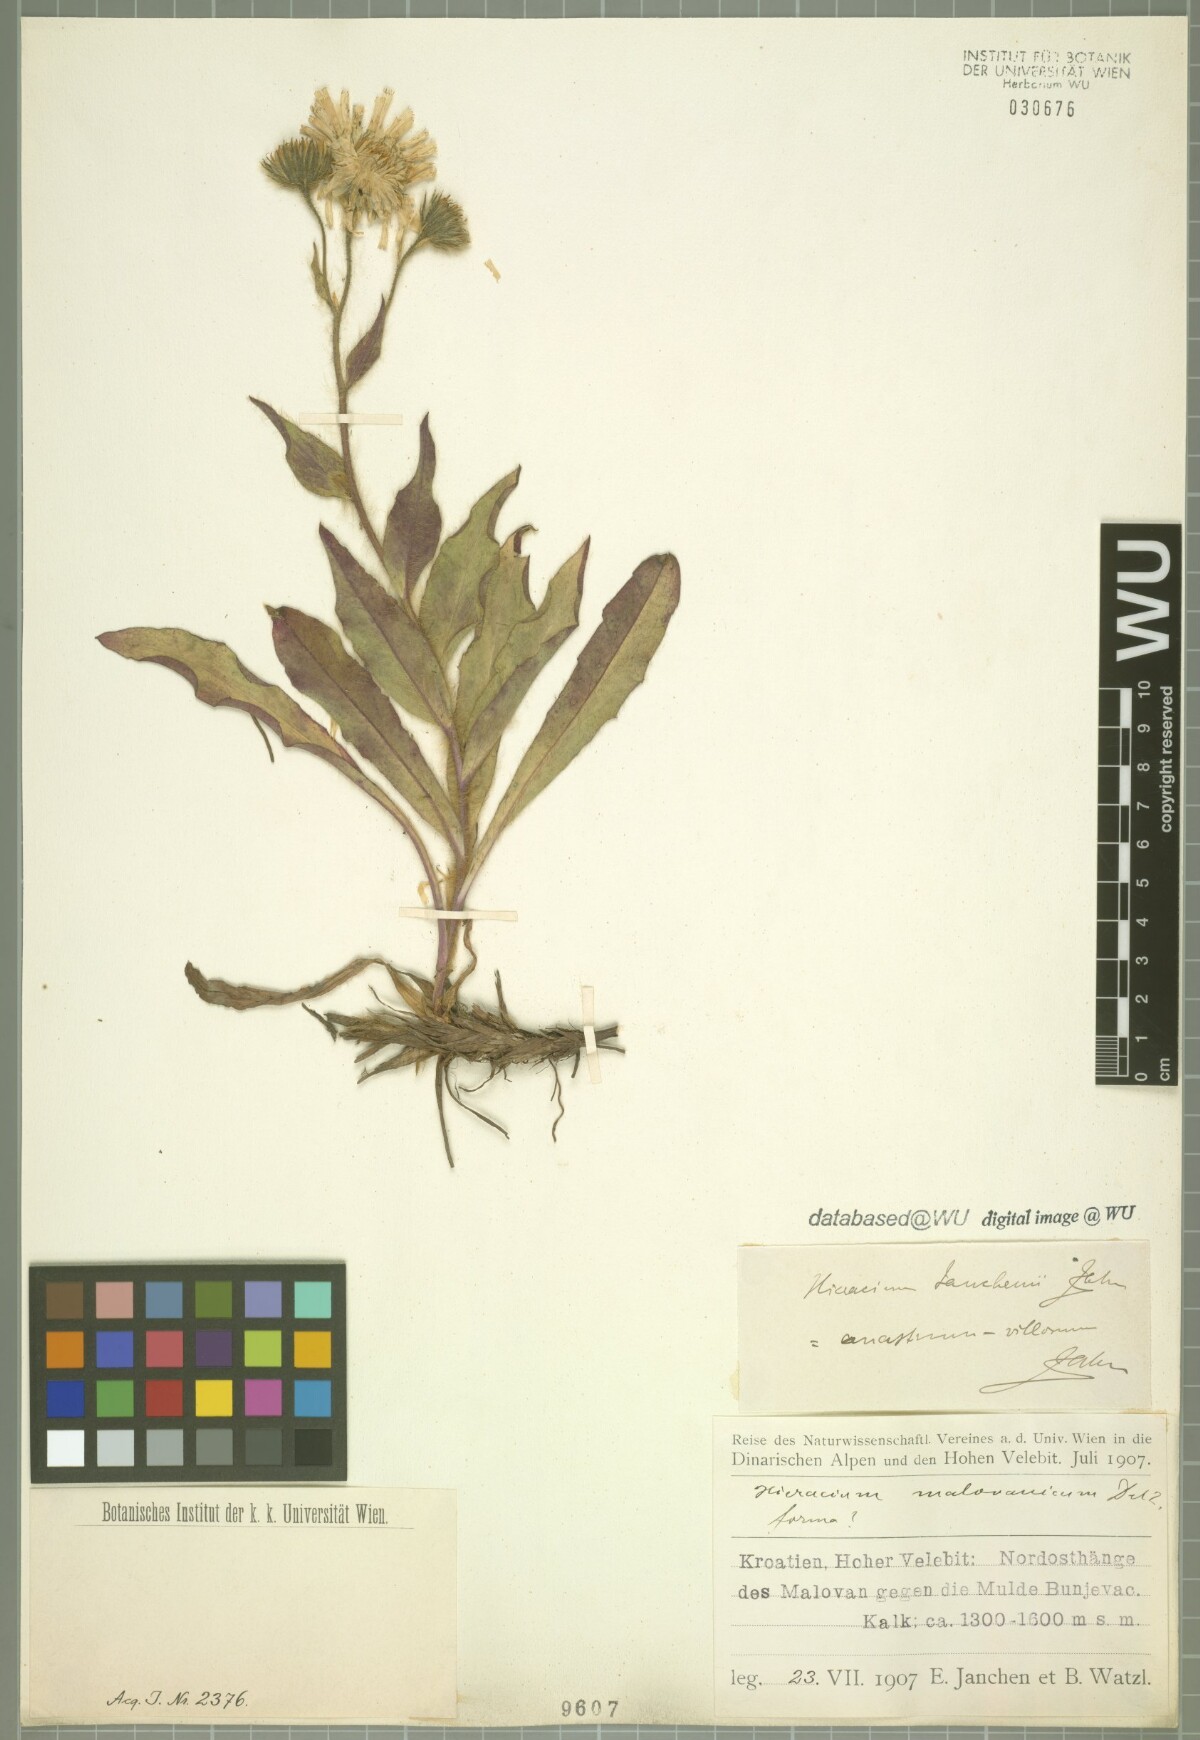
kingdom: Plantae
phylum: Tracheophyta
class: Magnoliopsida
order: Asterales
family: Asteraceae
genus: Hieracium
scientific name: Hieracium guentheri-beckii
